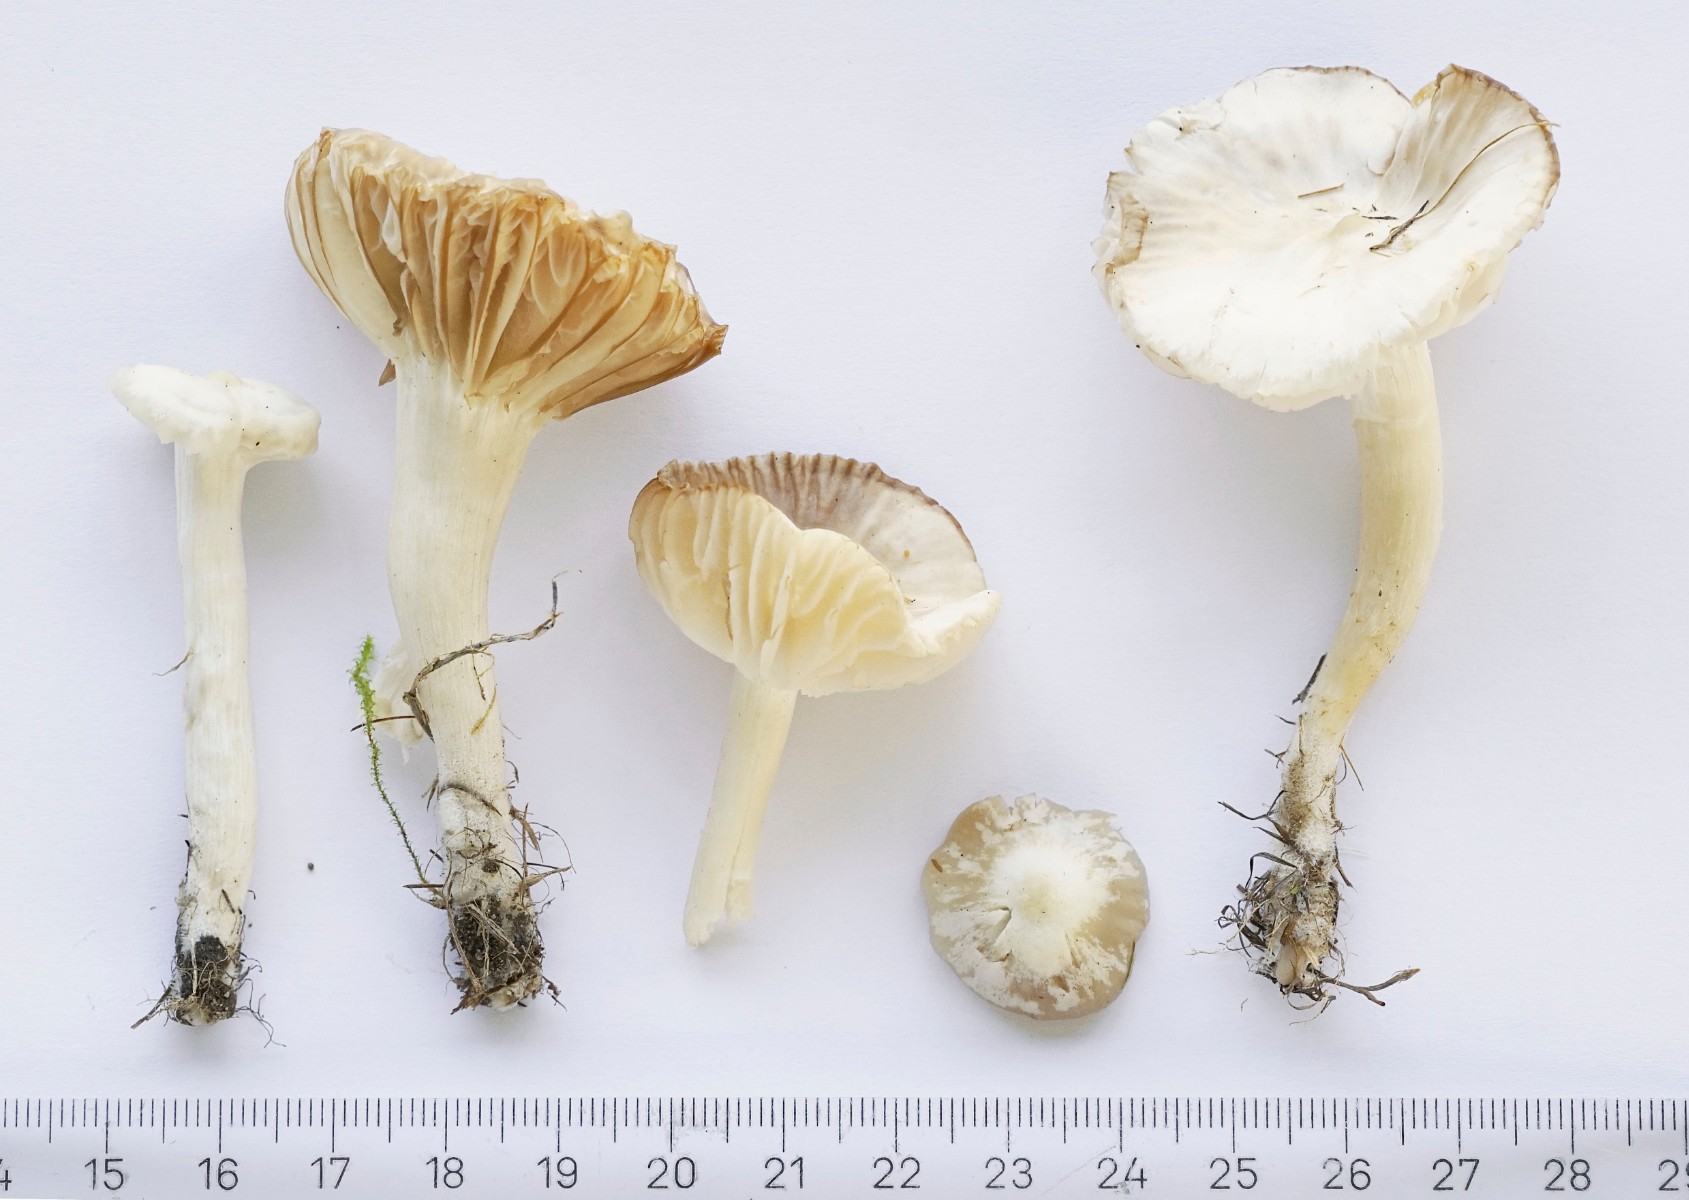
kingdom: Fungi
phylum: Basidiomycota
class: Agaricomycetes
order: Agaricales
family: Hygrophoraceae
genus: Cuphophyllus
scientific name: Cuphophyllus russocoriaceus
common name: ruslæder-vokshat
